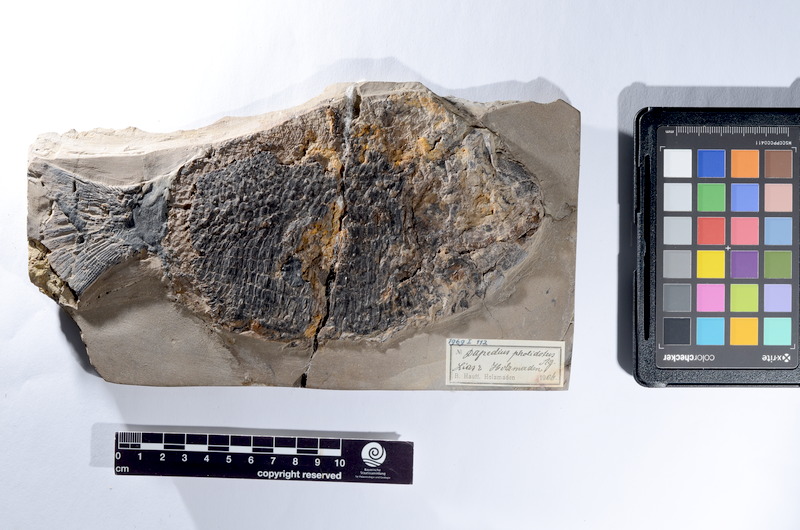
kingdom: Animalia
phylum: Chordata
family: Dapediidae
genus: Dapedium
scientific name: Dapedium pholidotum
